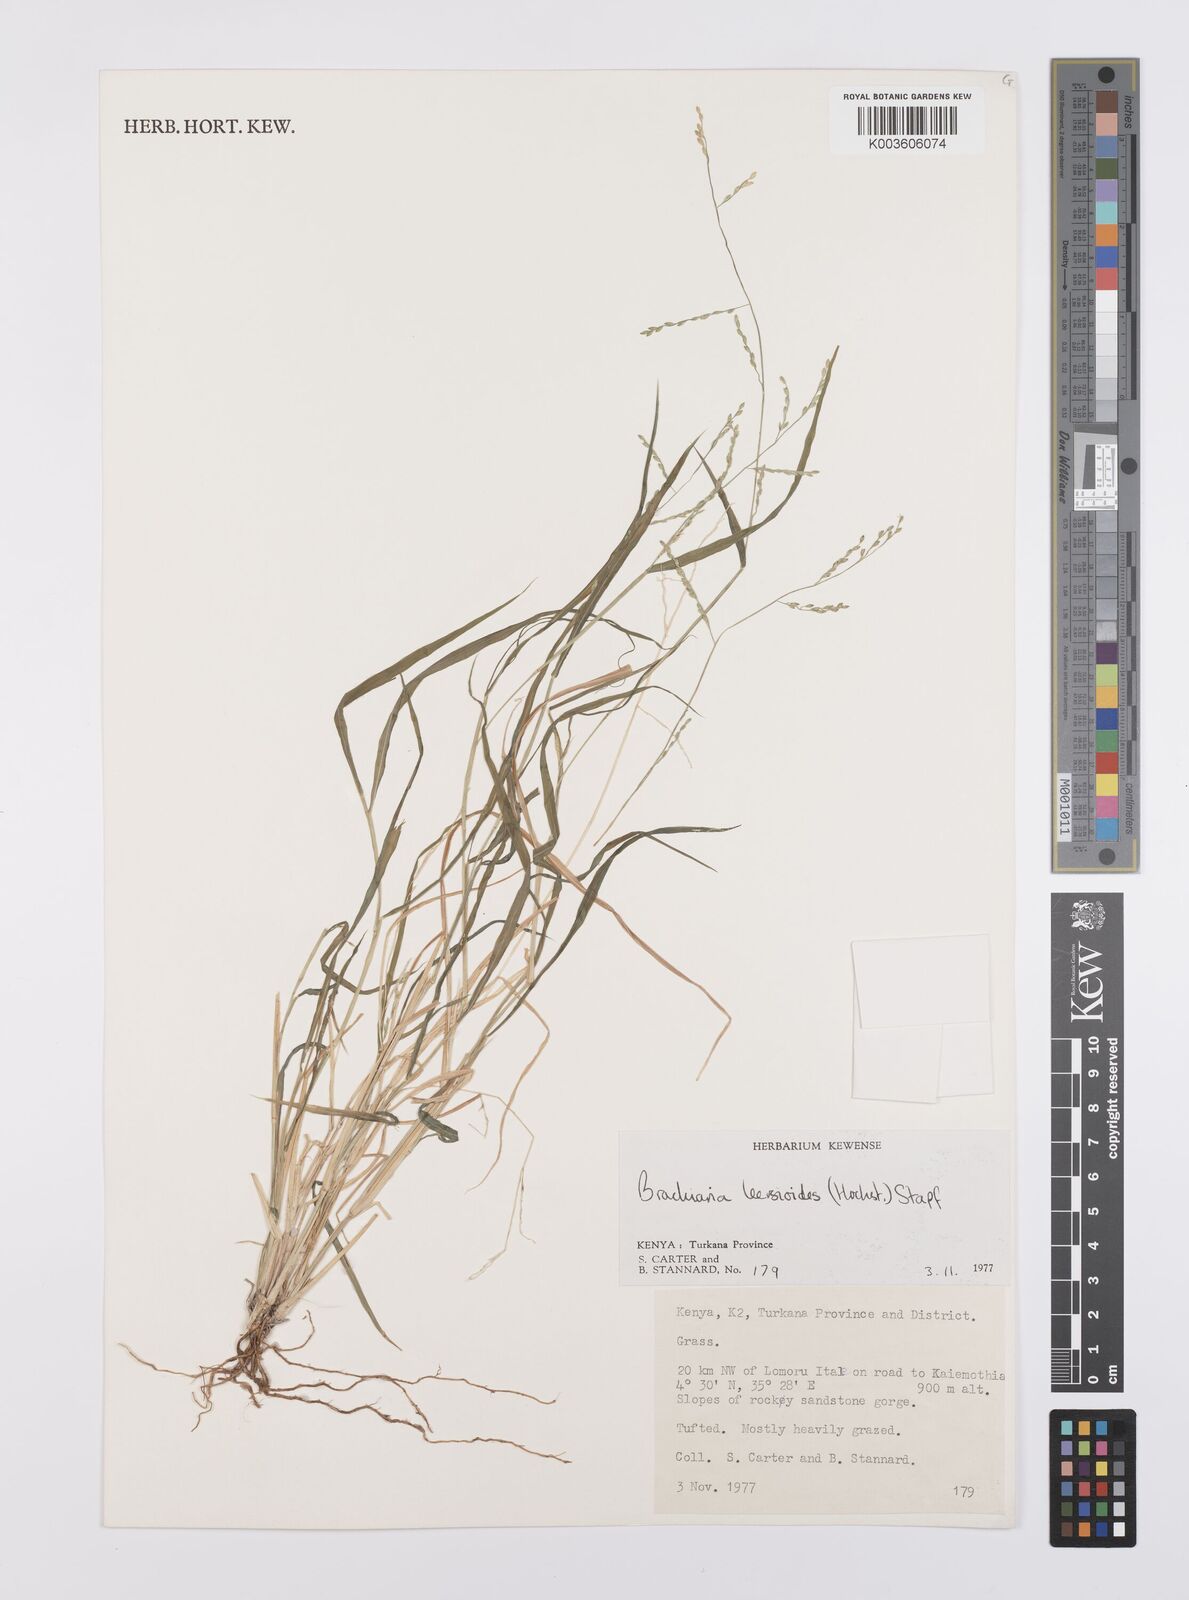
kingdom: Plantae
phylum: Tracheophyta
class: Liliopsida
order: Poales
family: Poaceae
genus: Urochloa
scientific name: Urochloa leersioides
